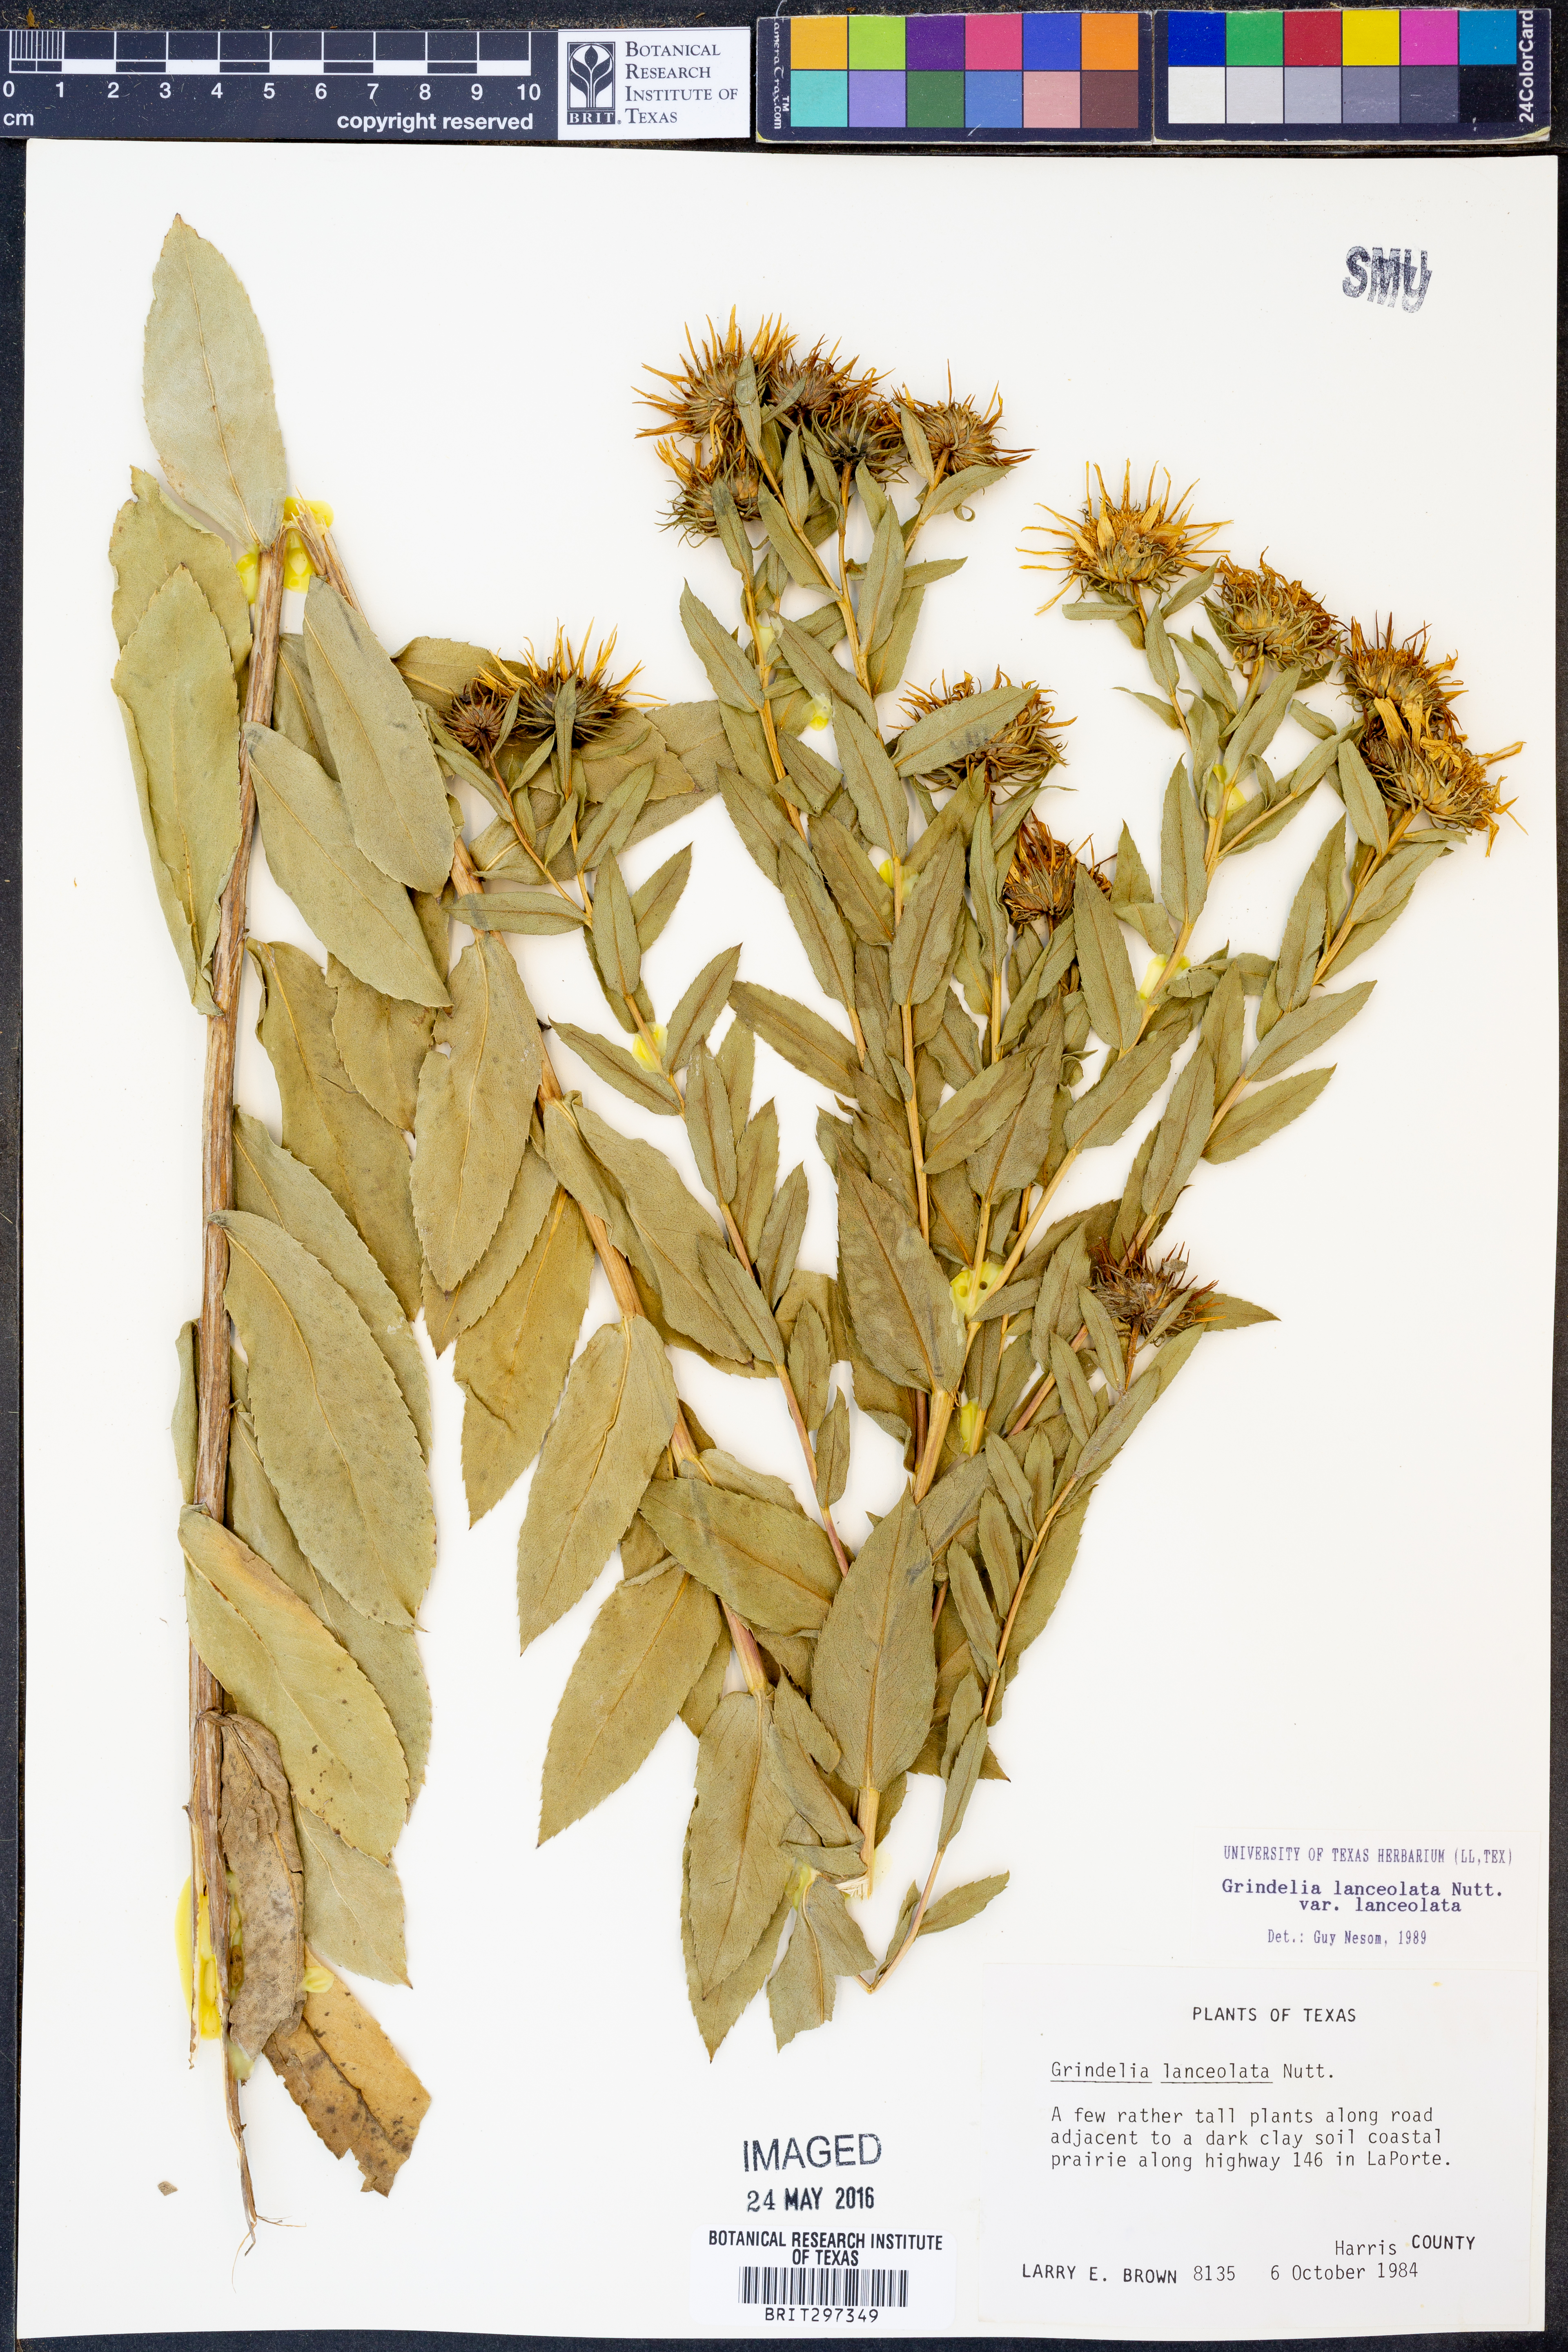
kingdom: Plantae
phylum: Tracheophyta
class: Magnoliopsida
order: Asterales
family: Asteraceae
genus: Grindelia
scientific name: Grindelia lanceolata
